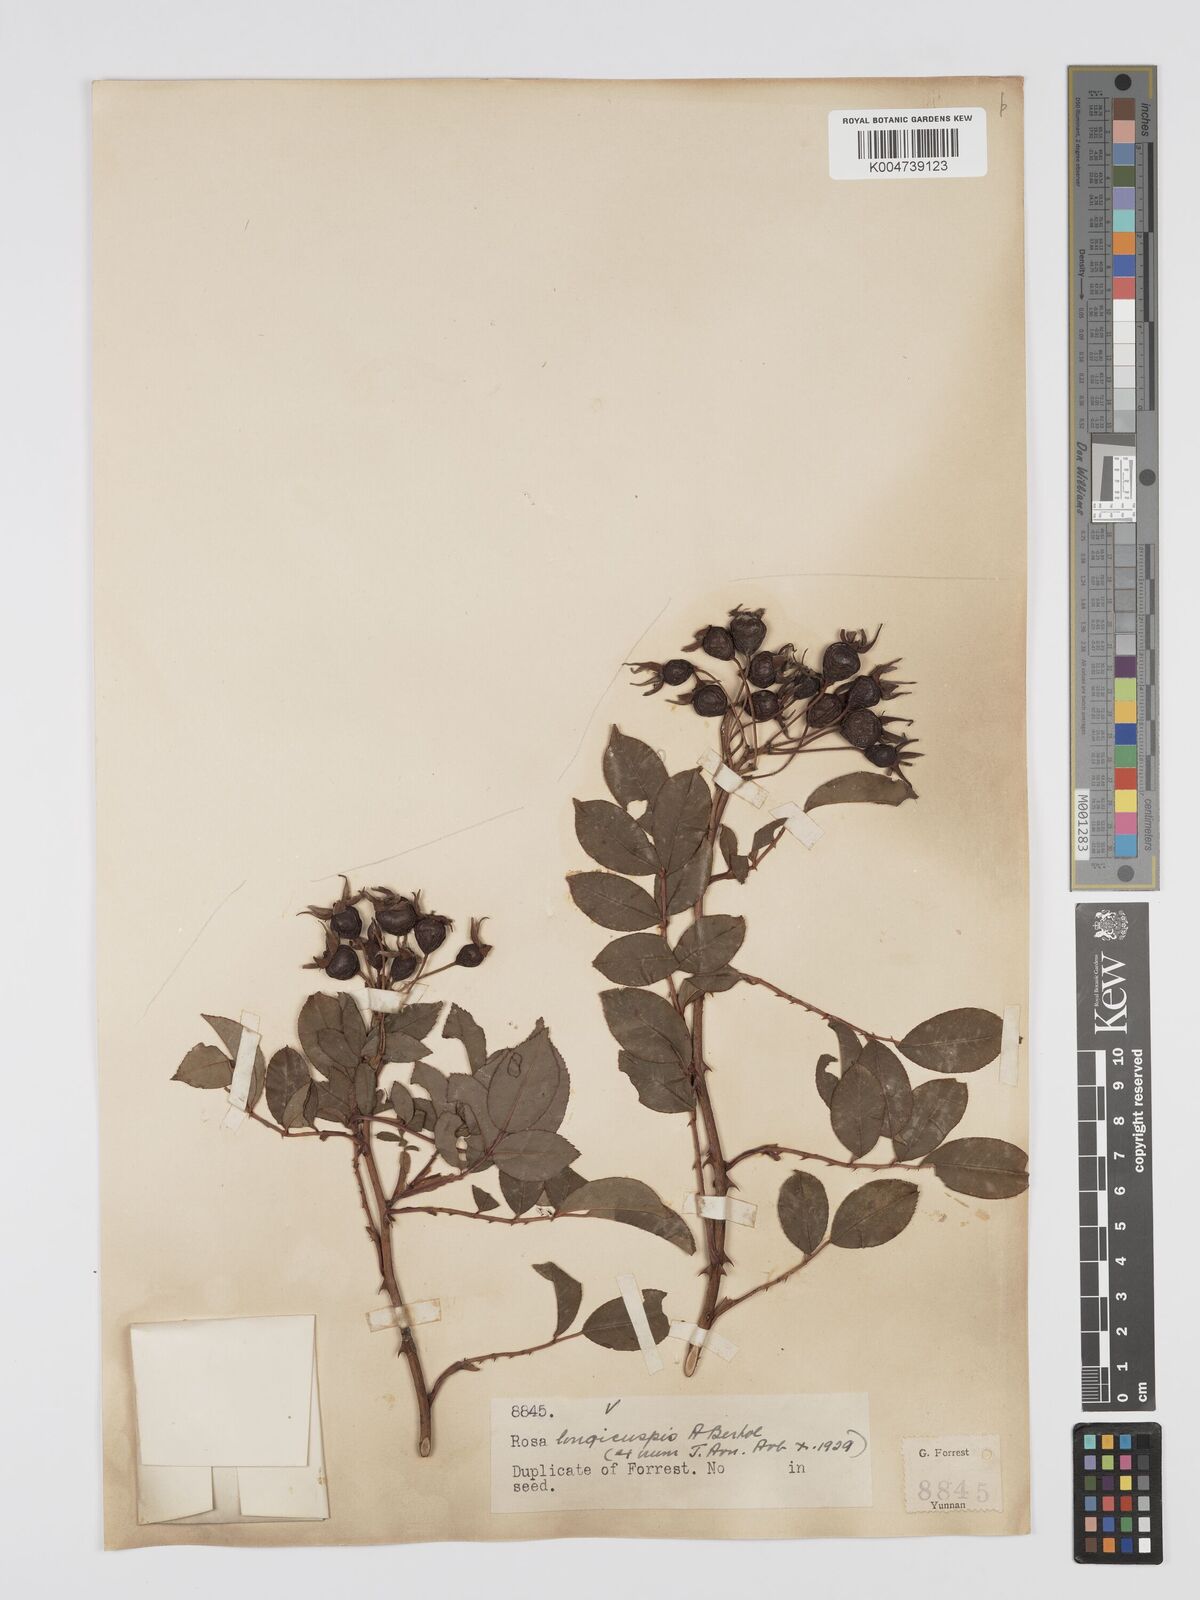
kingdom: Plantae
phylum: Tracheophyta
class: Magnoliopsida
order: Rosales
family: Rosaceae
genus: Rosa
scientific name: Rosa longicuspis
